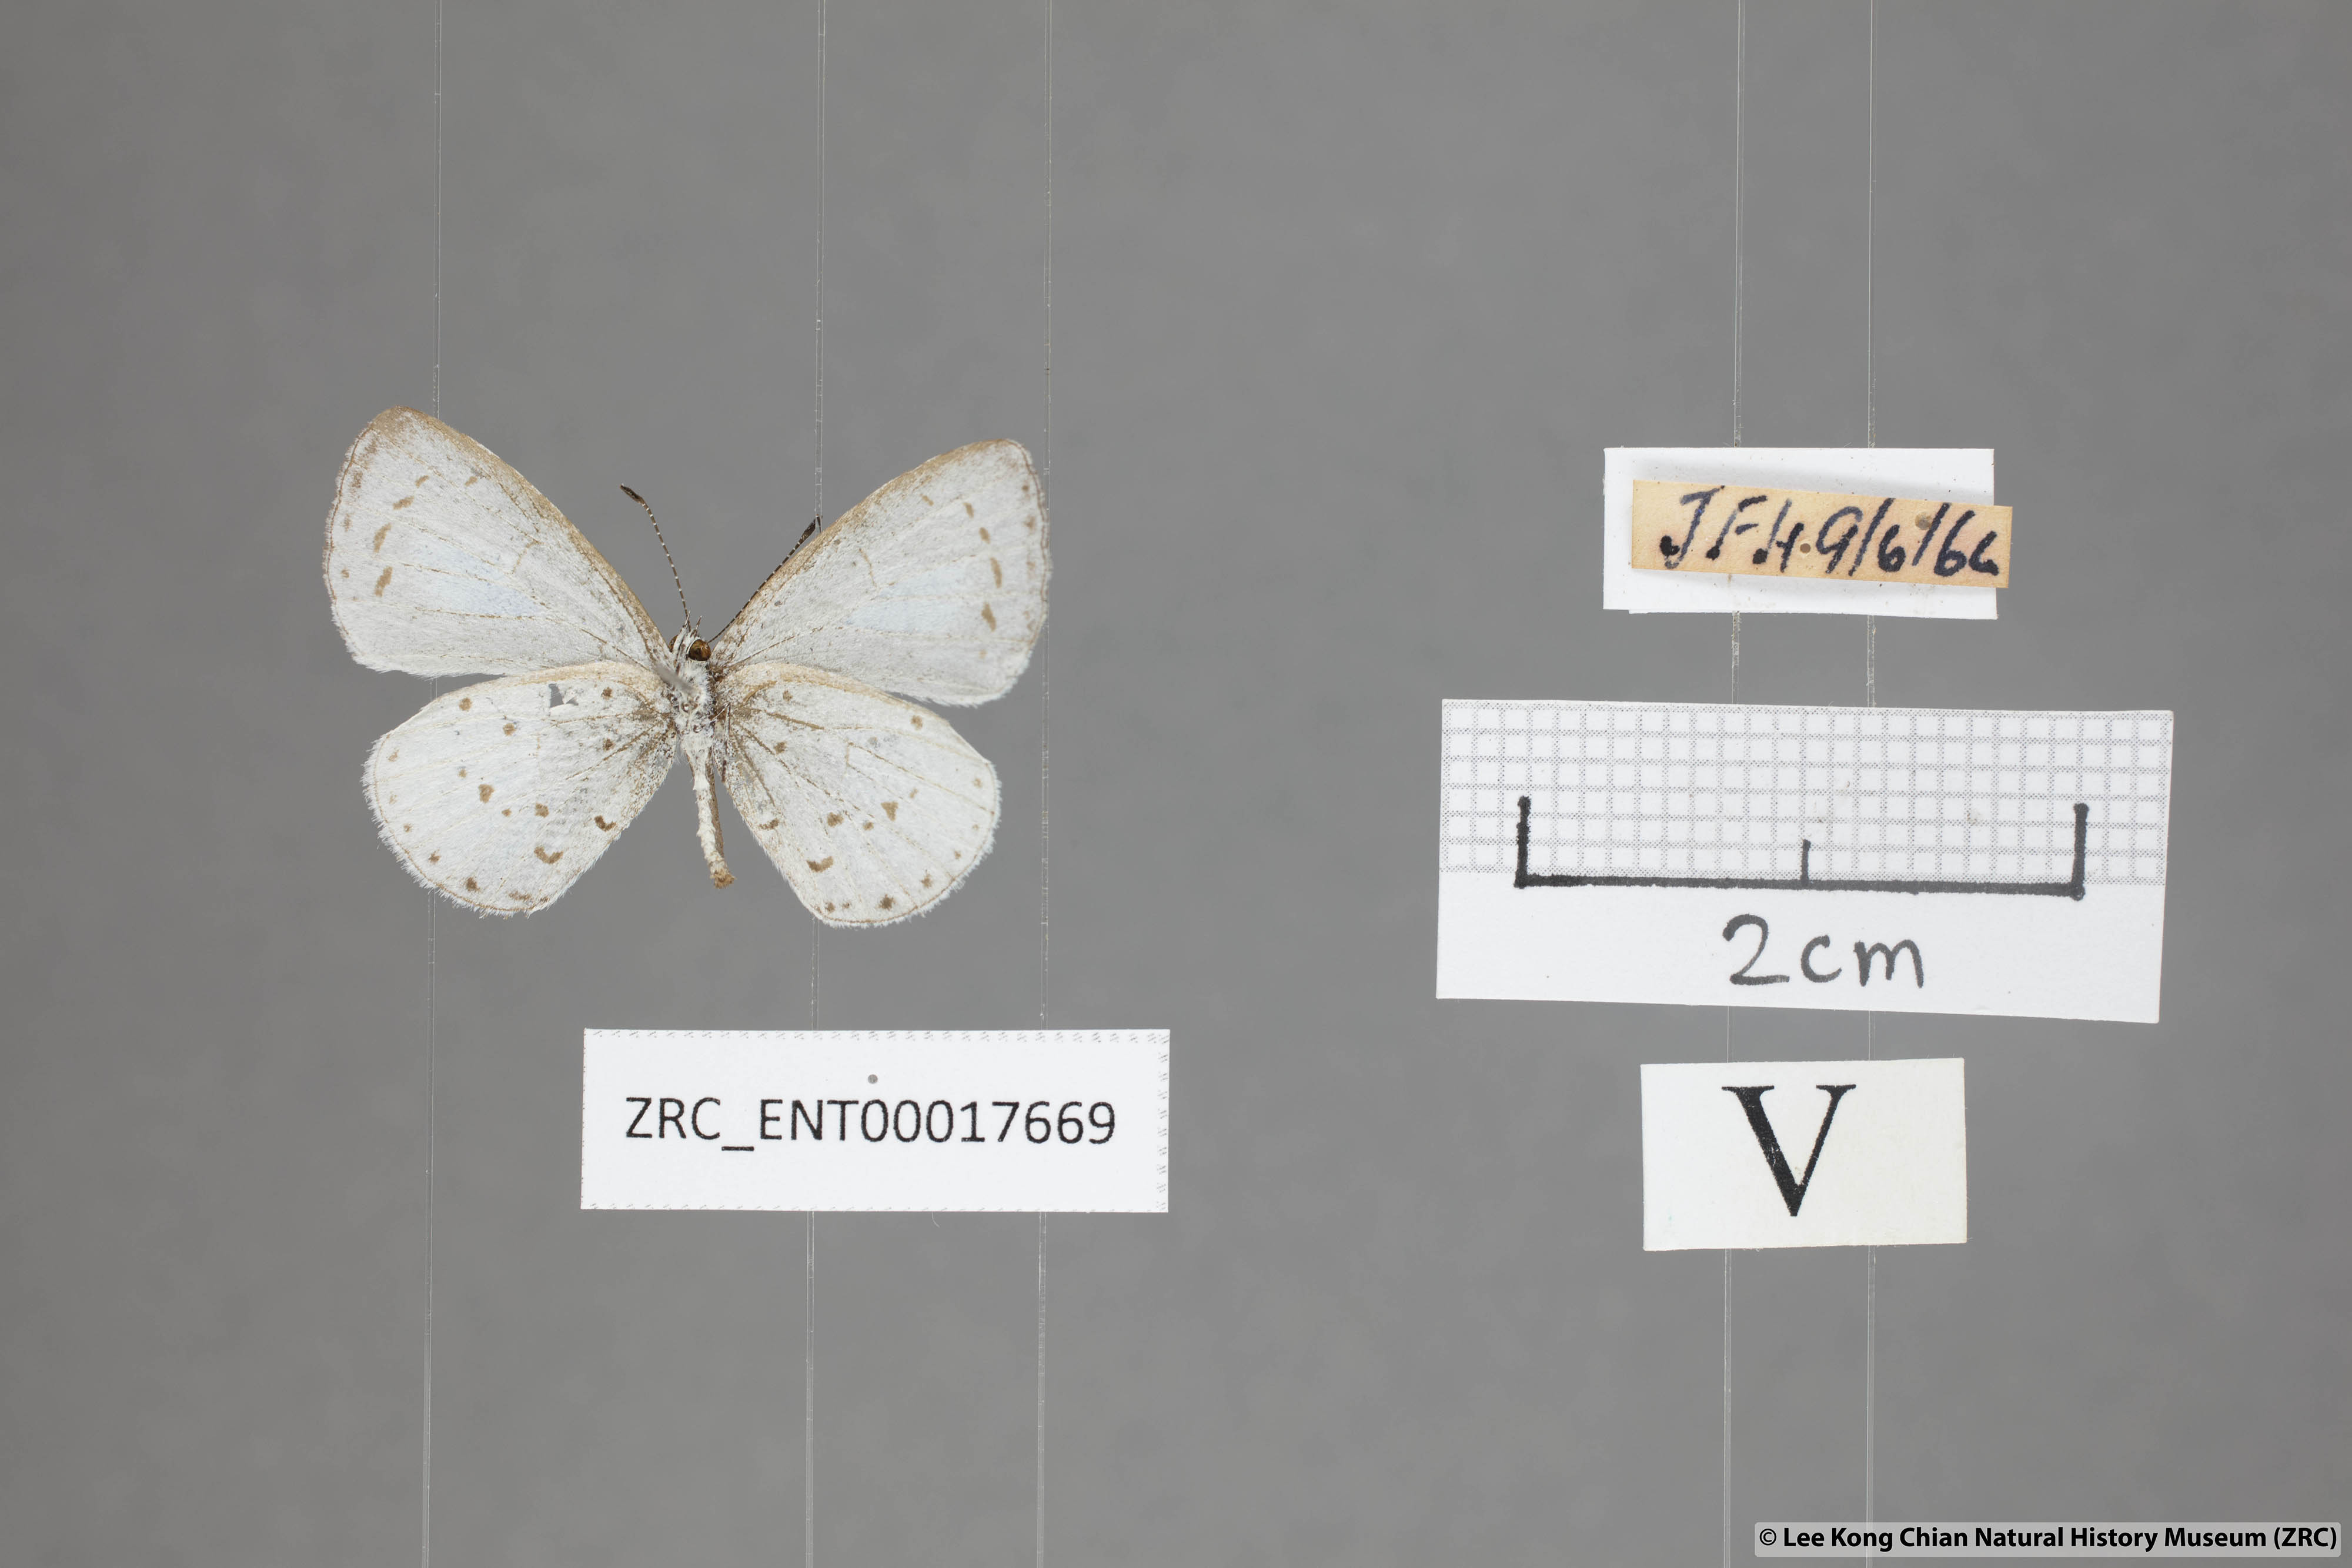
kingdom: Animalia
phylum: Arthropoda
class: Insecta
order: Lepidoptera
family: Lycaenidae
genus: Udara
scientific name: Udara albocaerulea
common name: Albocerulean
